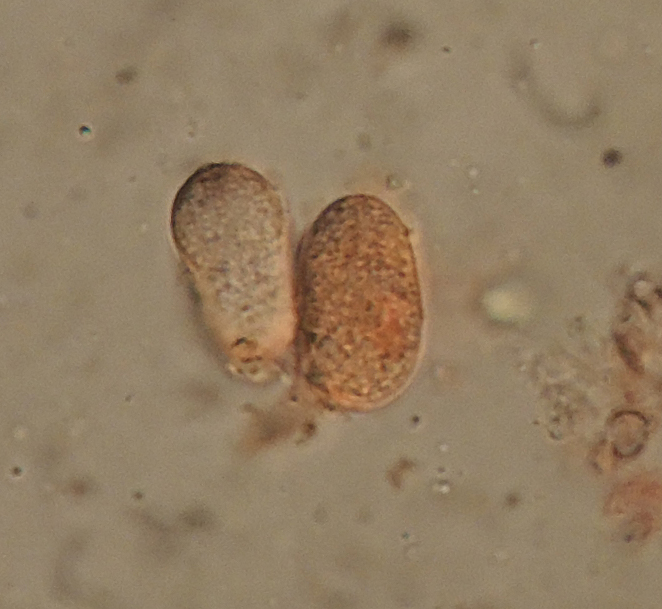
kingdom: Fungi
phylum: Basidiomycota
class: Agaricomycetes
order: Auriculariales
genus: Basidiodendron
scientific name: Basidiodendron cinereum
